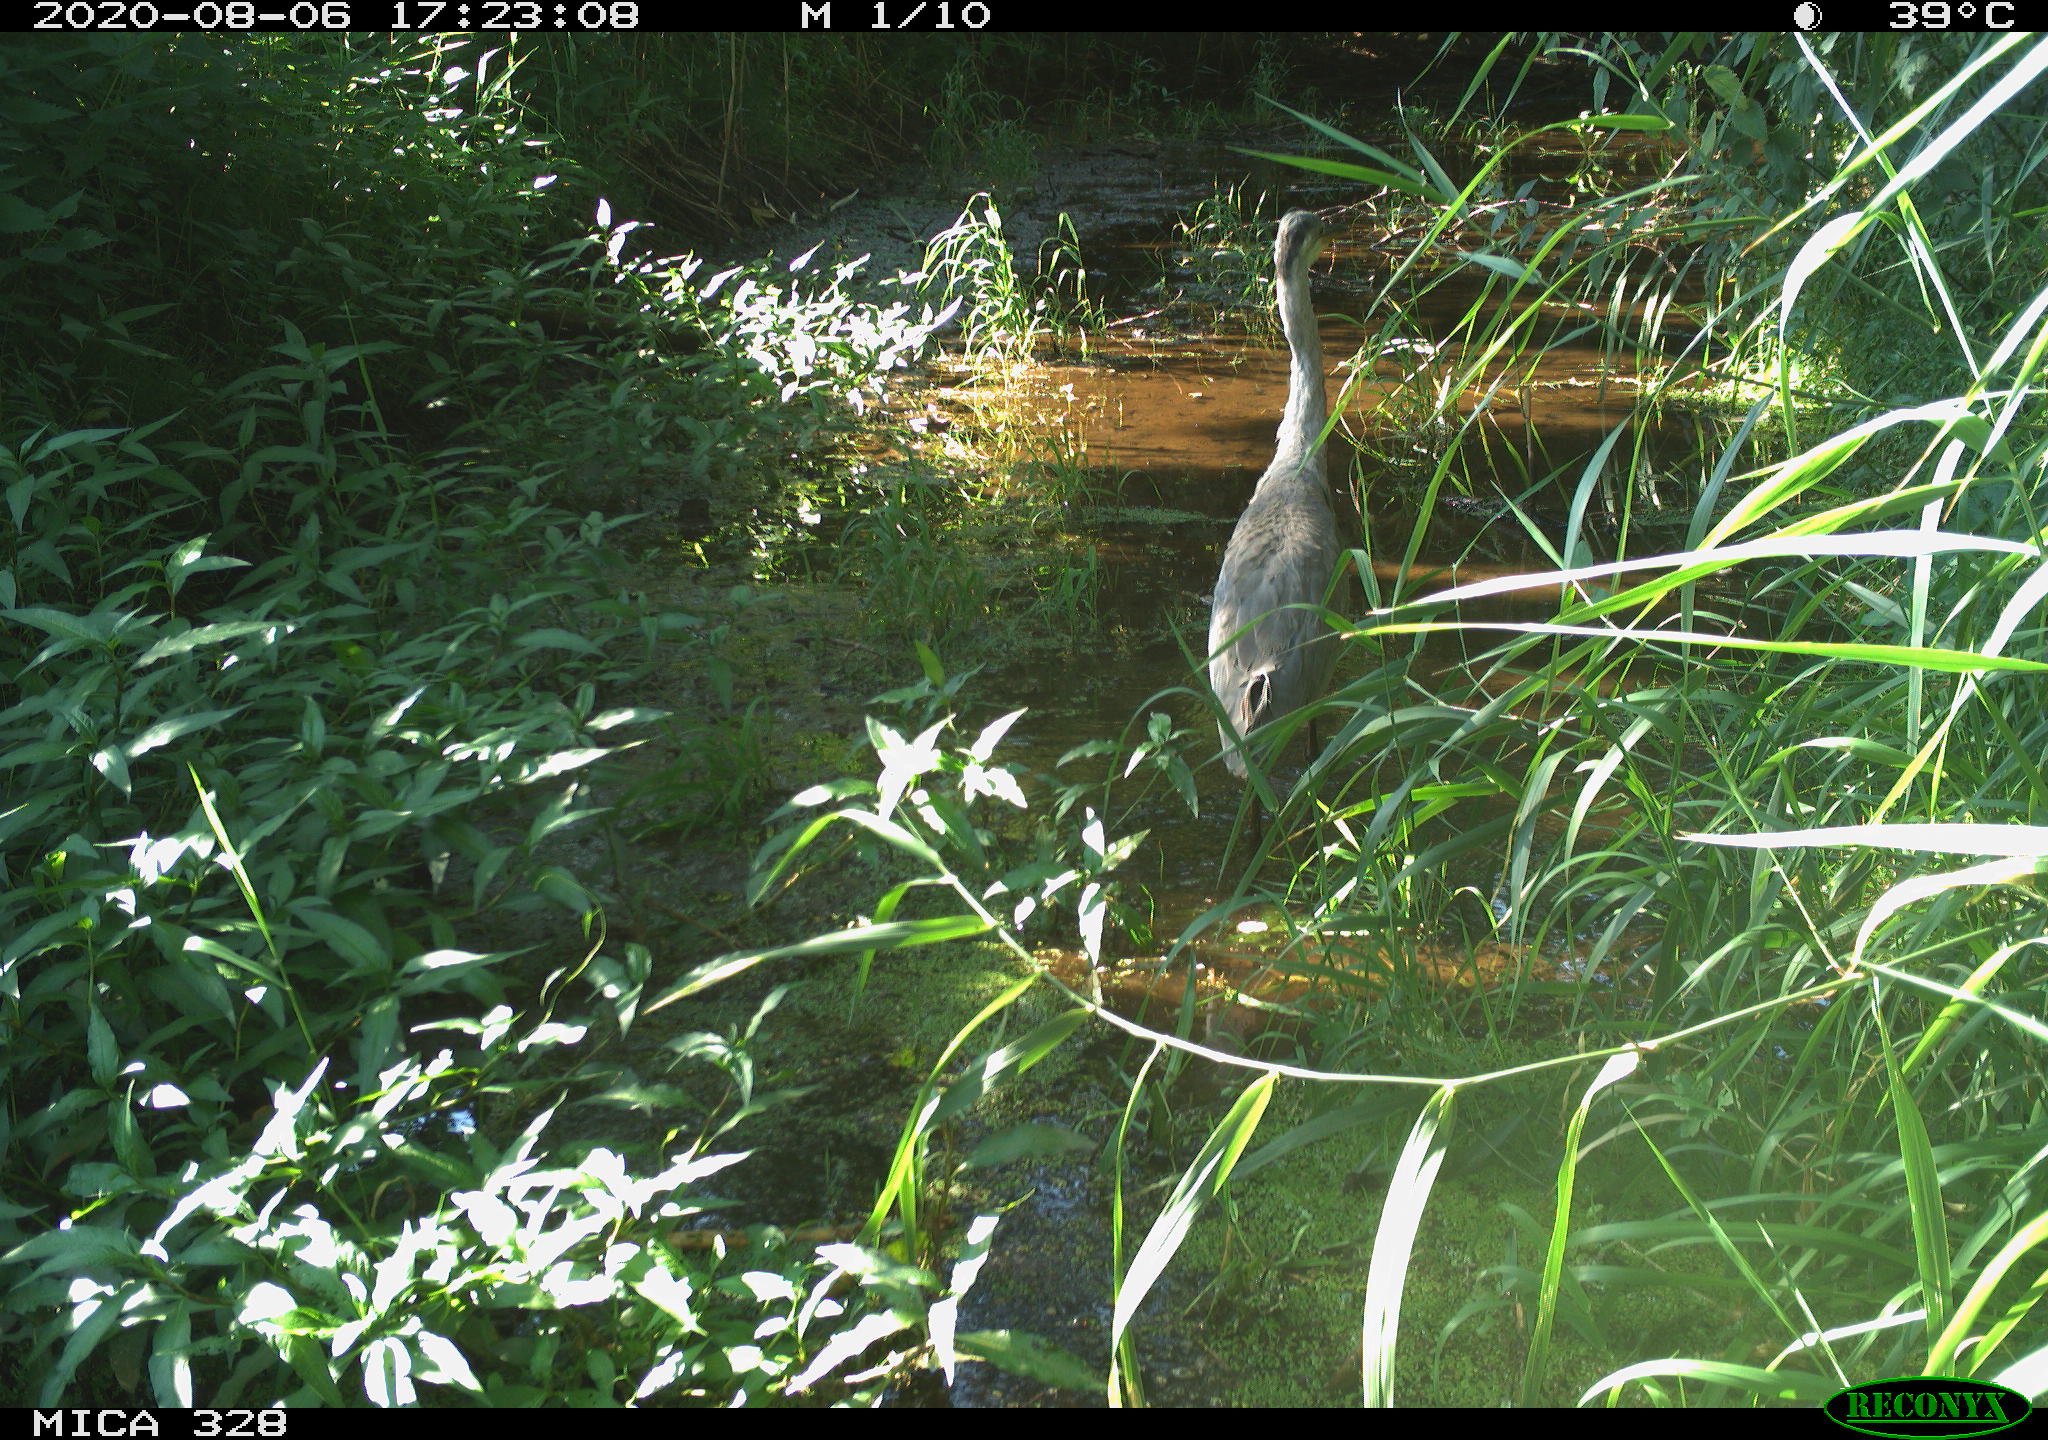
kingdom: Animalia
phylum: Chordata
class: Aves
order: Pelecaniformes
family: Ardeidae
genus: Ardea
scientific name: Ardea cinerea
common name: Grey heron
